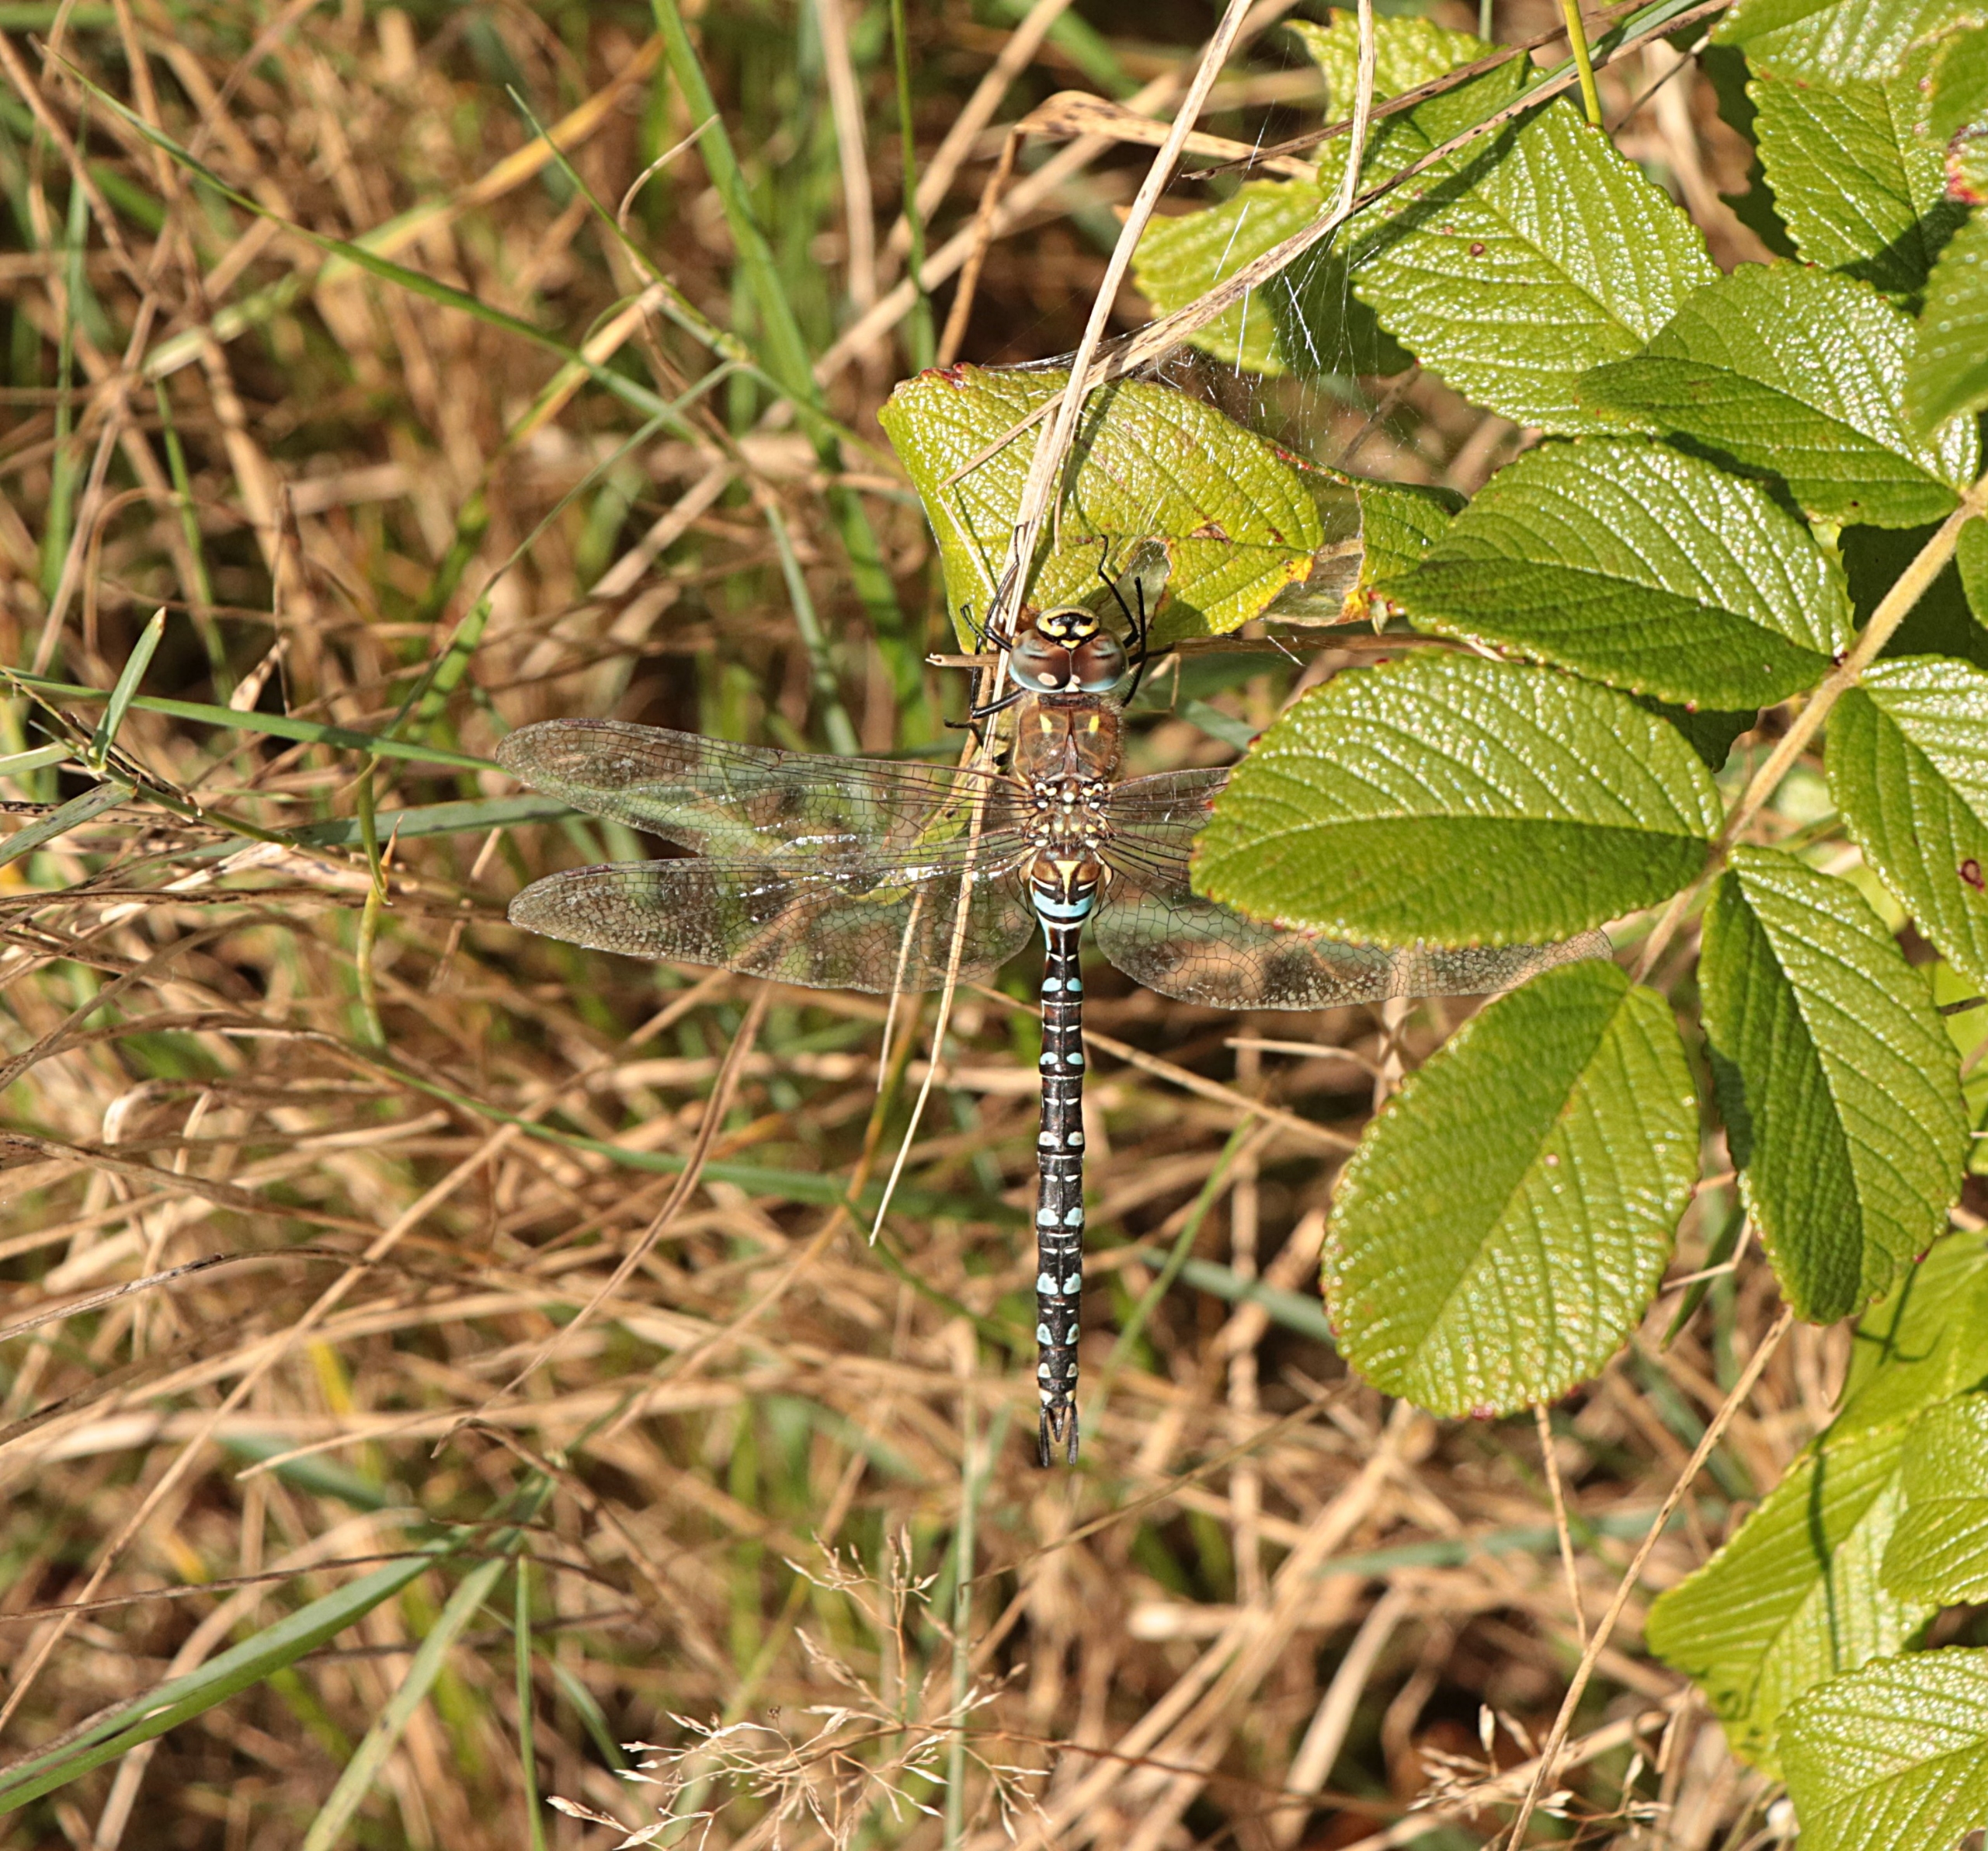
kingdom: Animalia
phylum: Arthropoda
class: Insecta
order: Odonata
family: Aeshnidae
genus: Aeshna
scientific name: Aeshna mixta
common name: Efterårs-mosaikguldsmed
